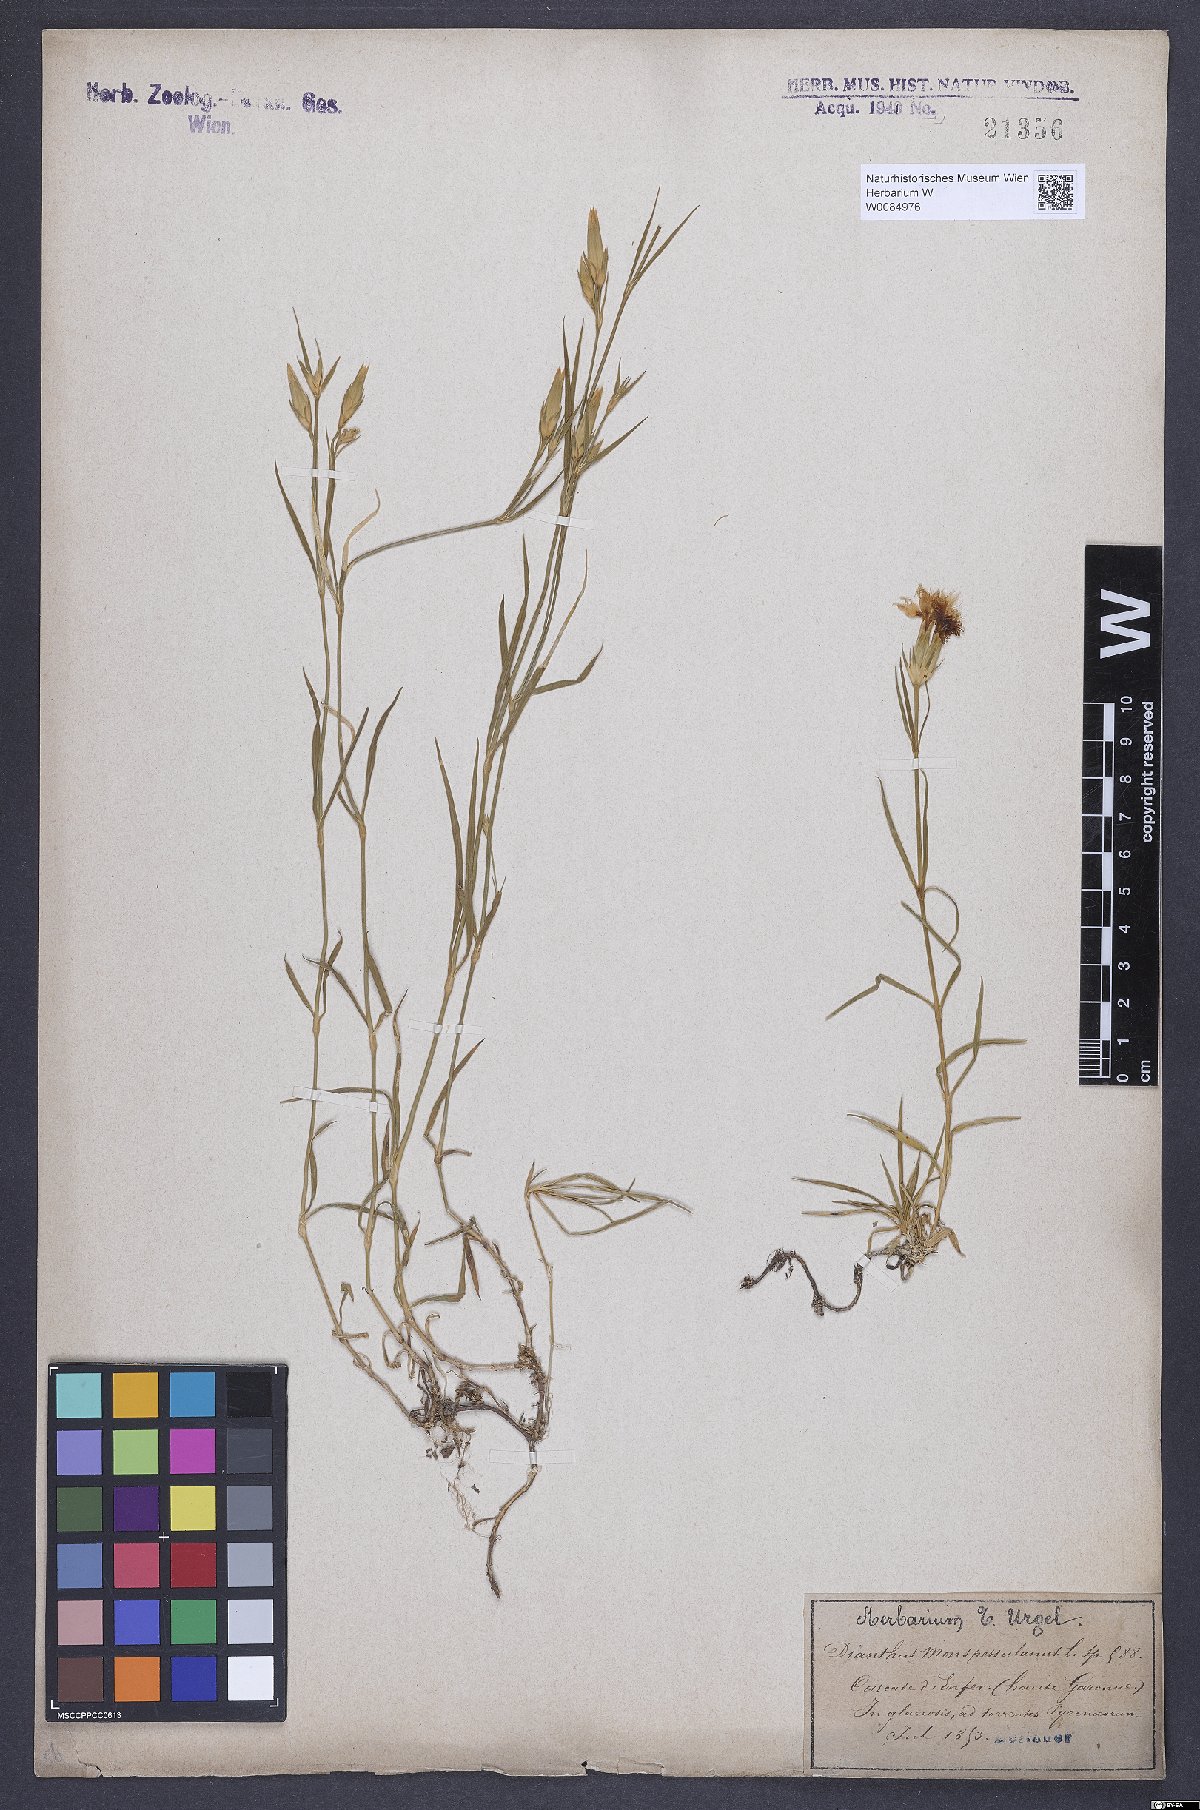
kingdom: Plantae
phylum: Tracheophyta
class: Magnoliopsida
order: Caryophyllales
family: Caryophyllaceae
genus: Dianthus
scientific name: Dianthus hyssopifolius
